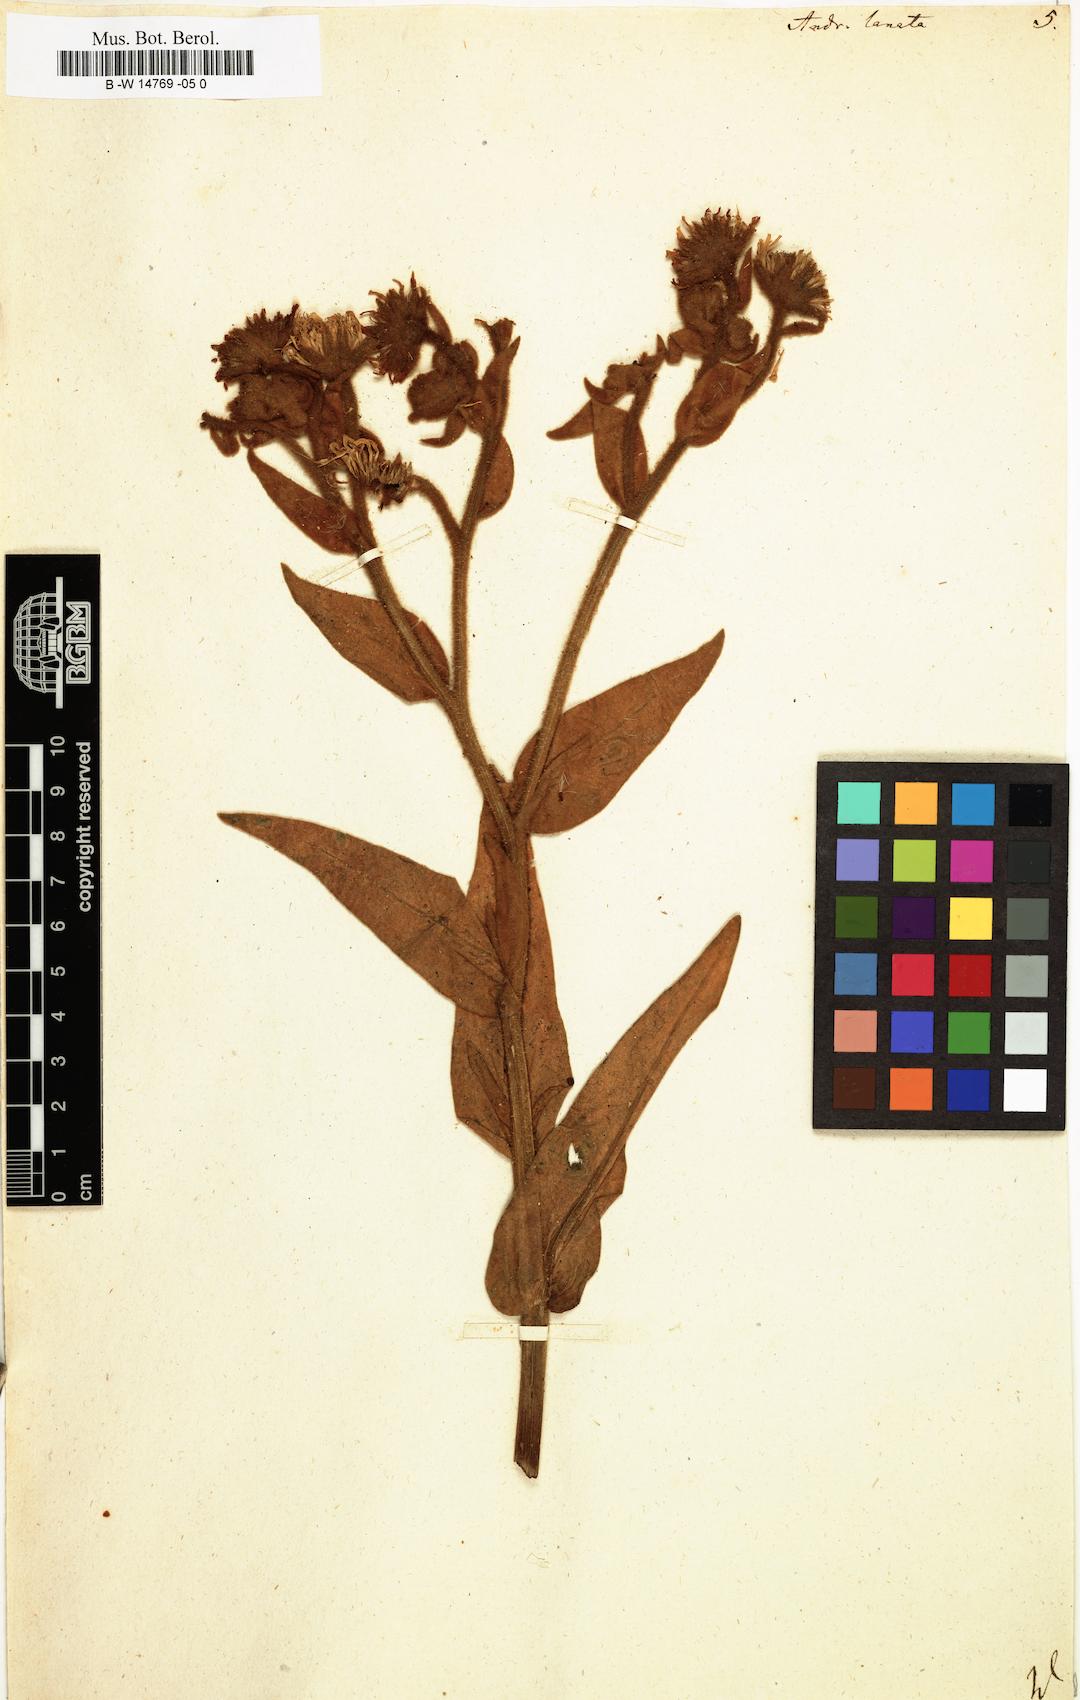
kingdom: Plantae
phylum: Tracheophyta
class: Magnoliopsida
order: Asterales
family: Asteraceae
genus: Andryala
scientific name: Andryala lanata
